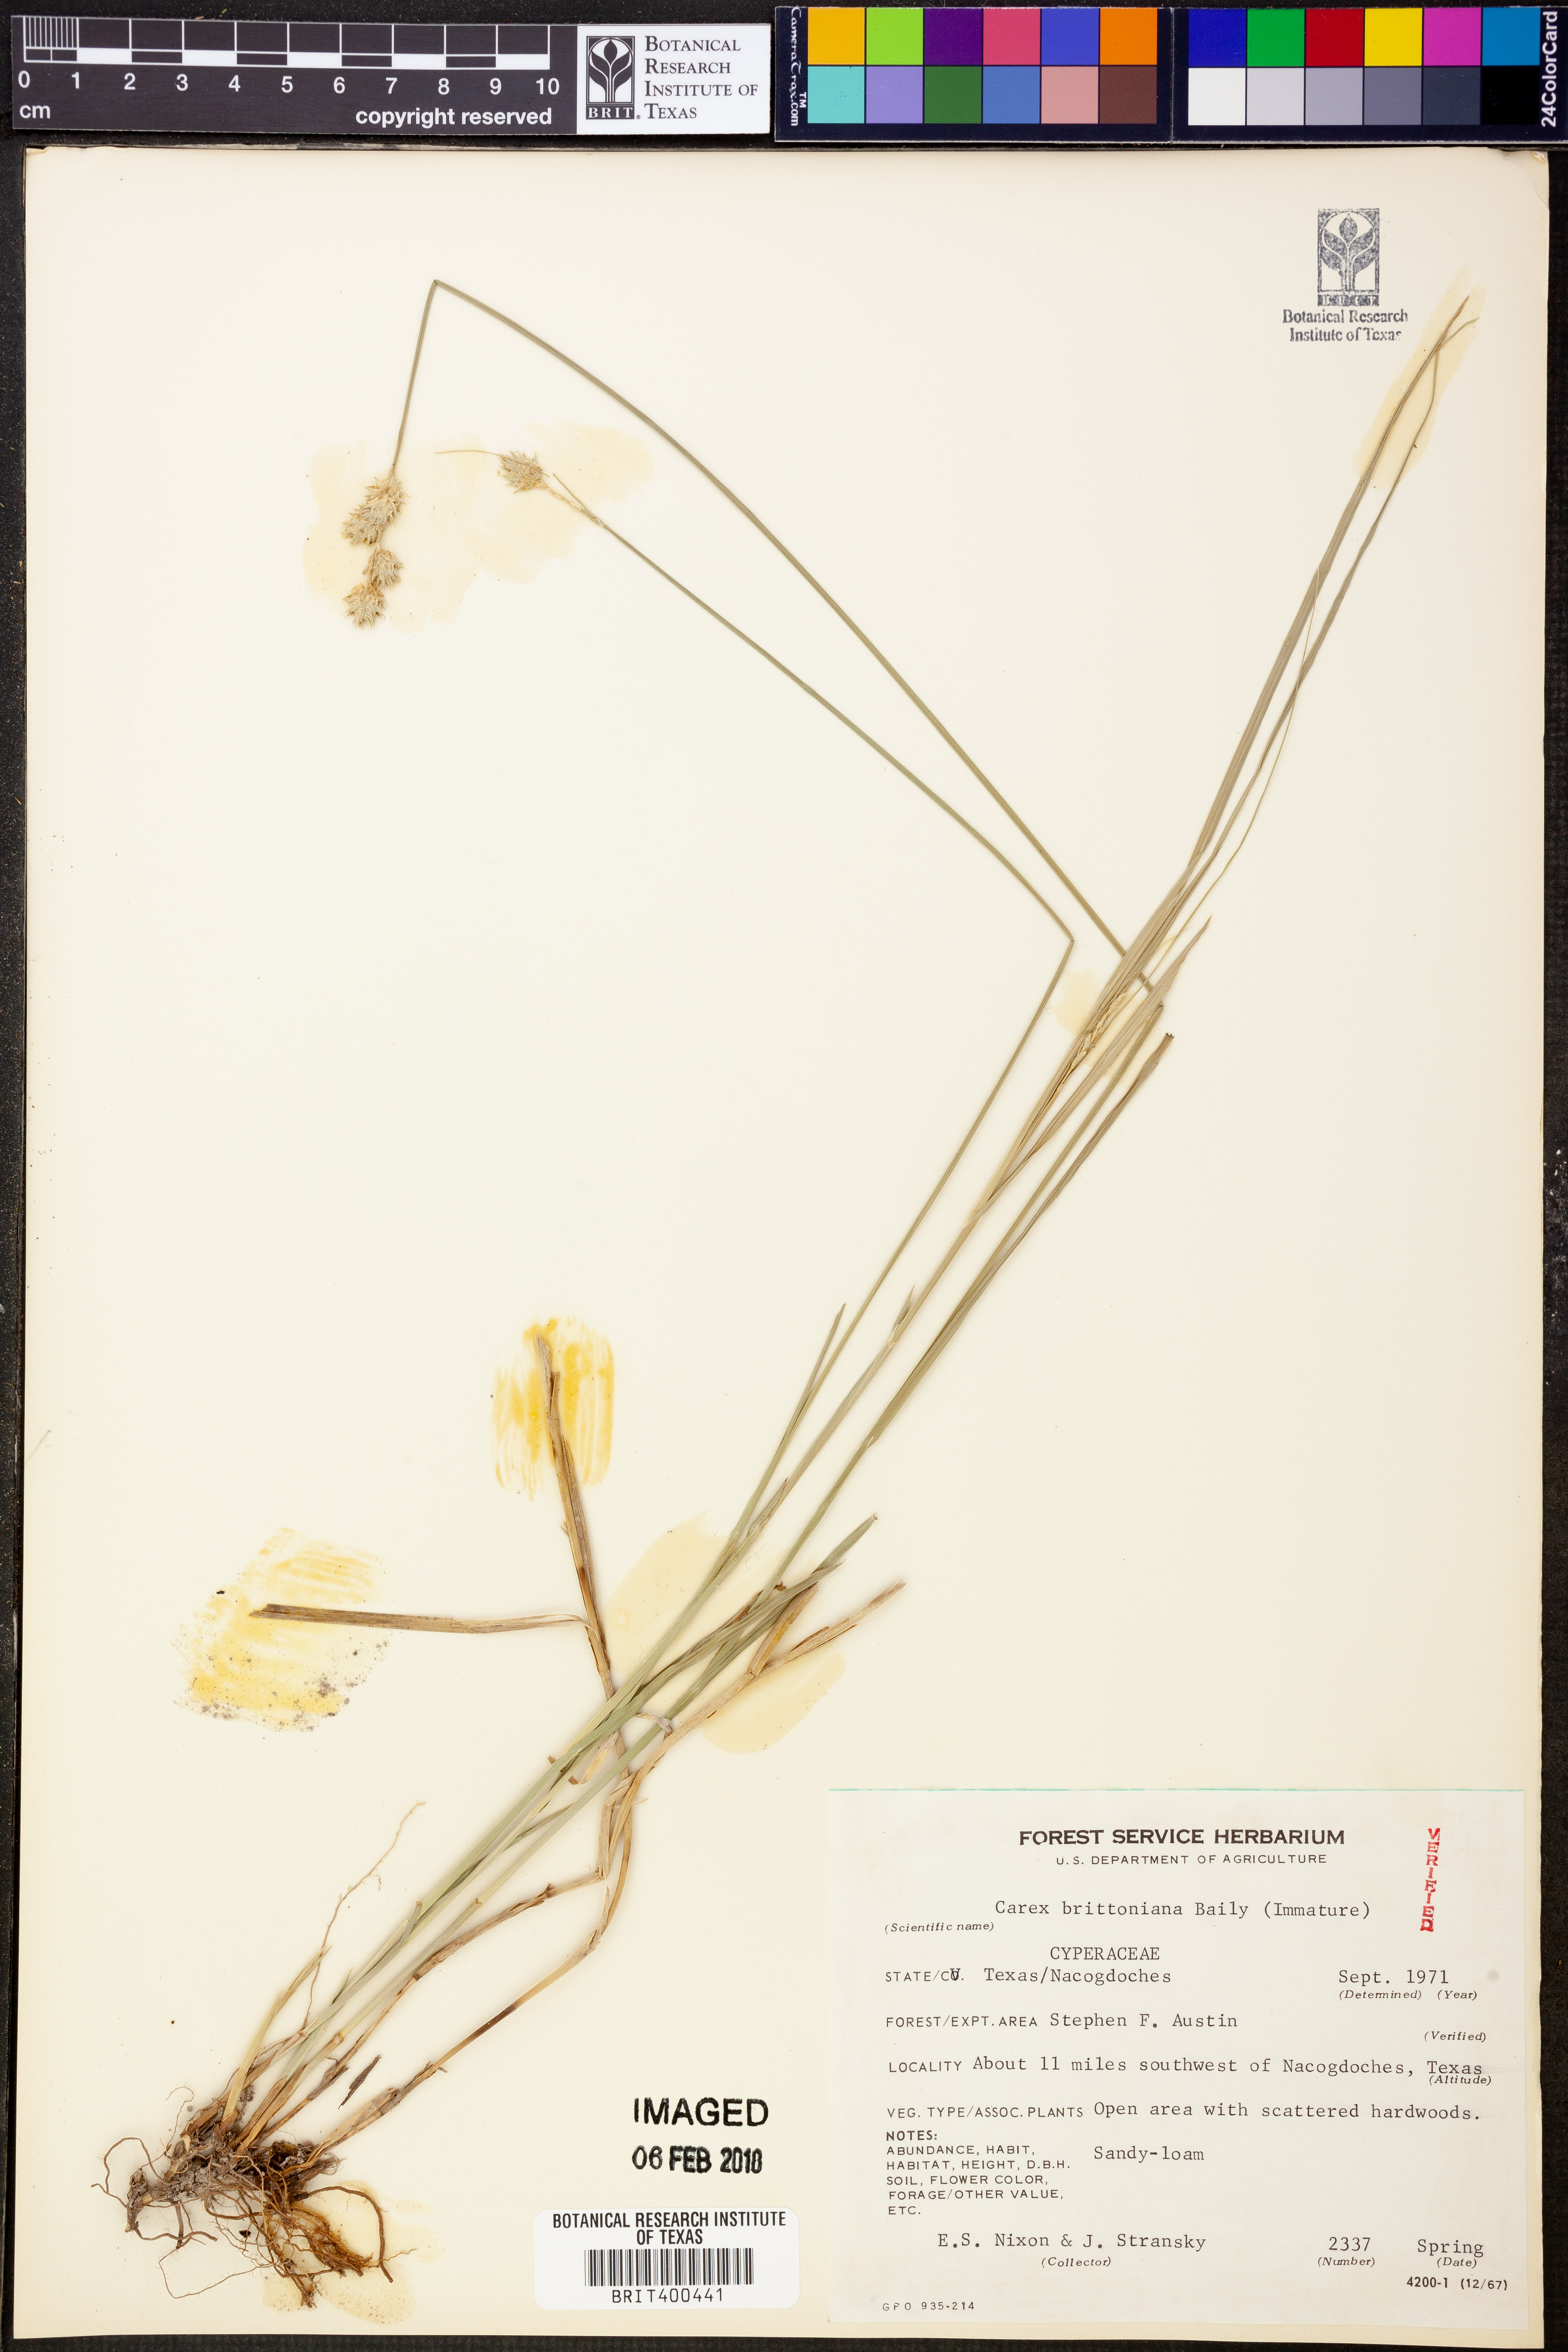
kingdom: Plantae
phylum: Tracheophyta
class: Liliopsida
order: Poales
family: Cyperaceae
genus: Carex
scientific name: Carex tetrastachya
